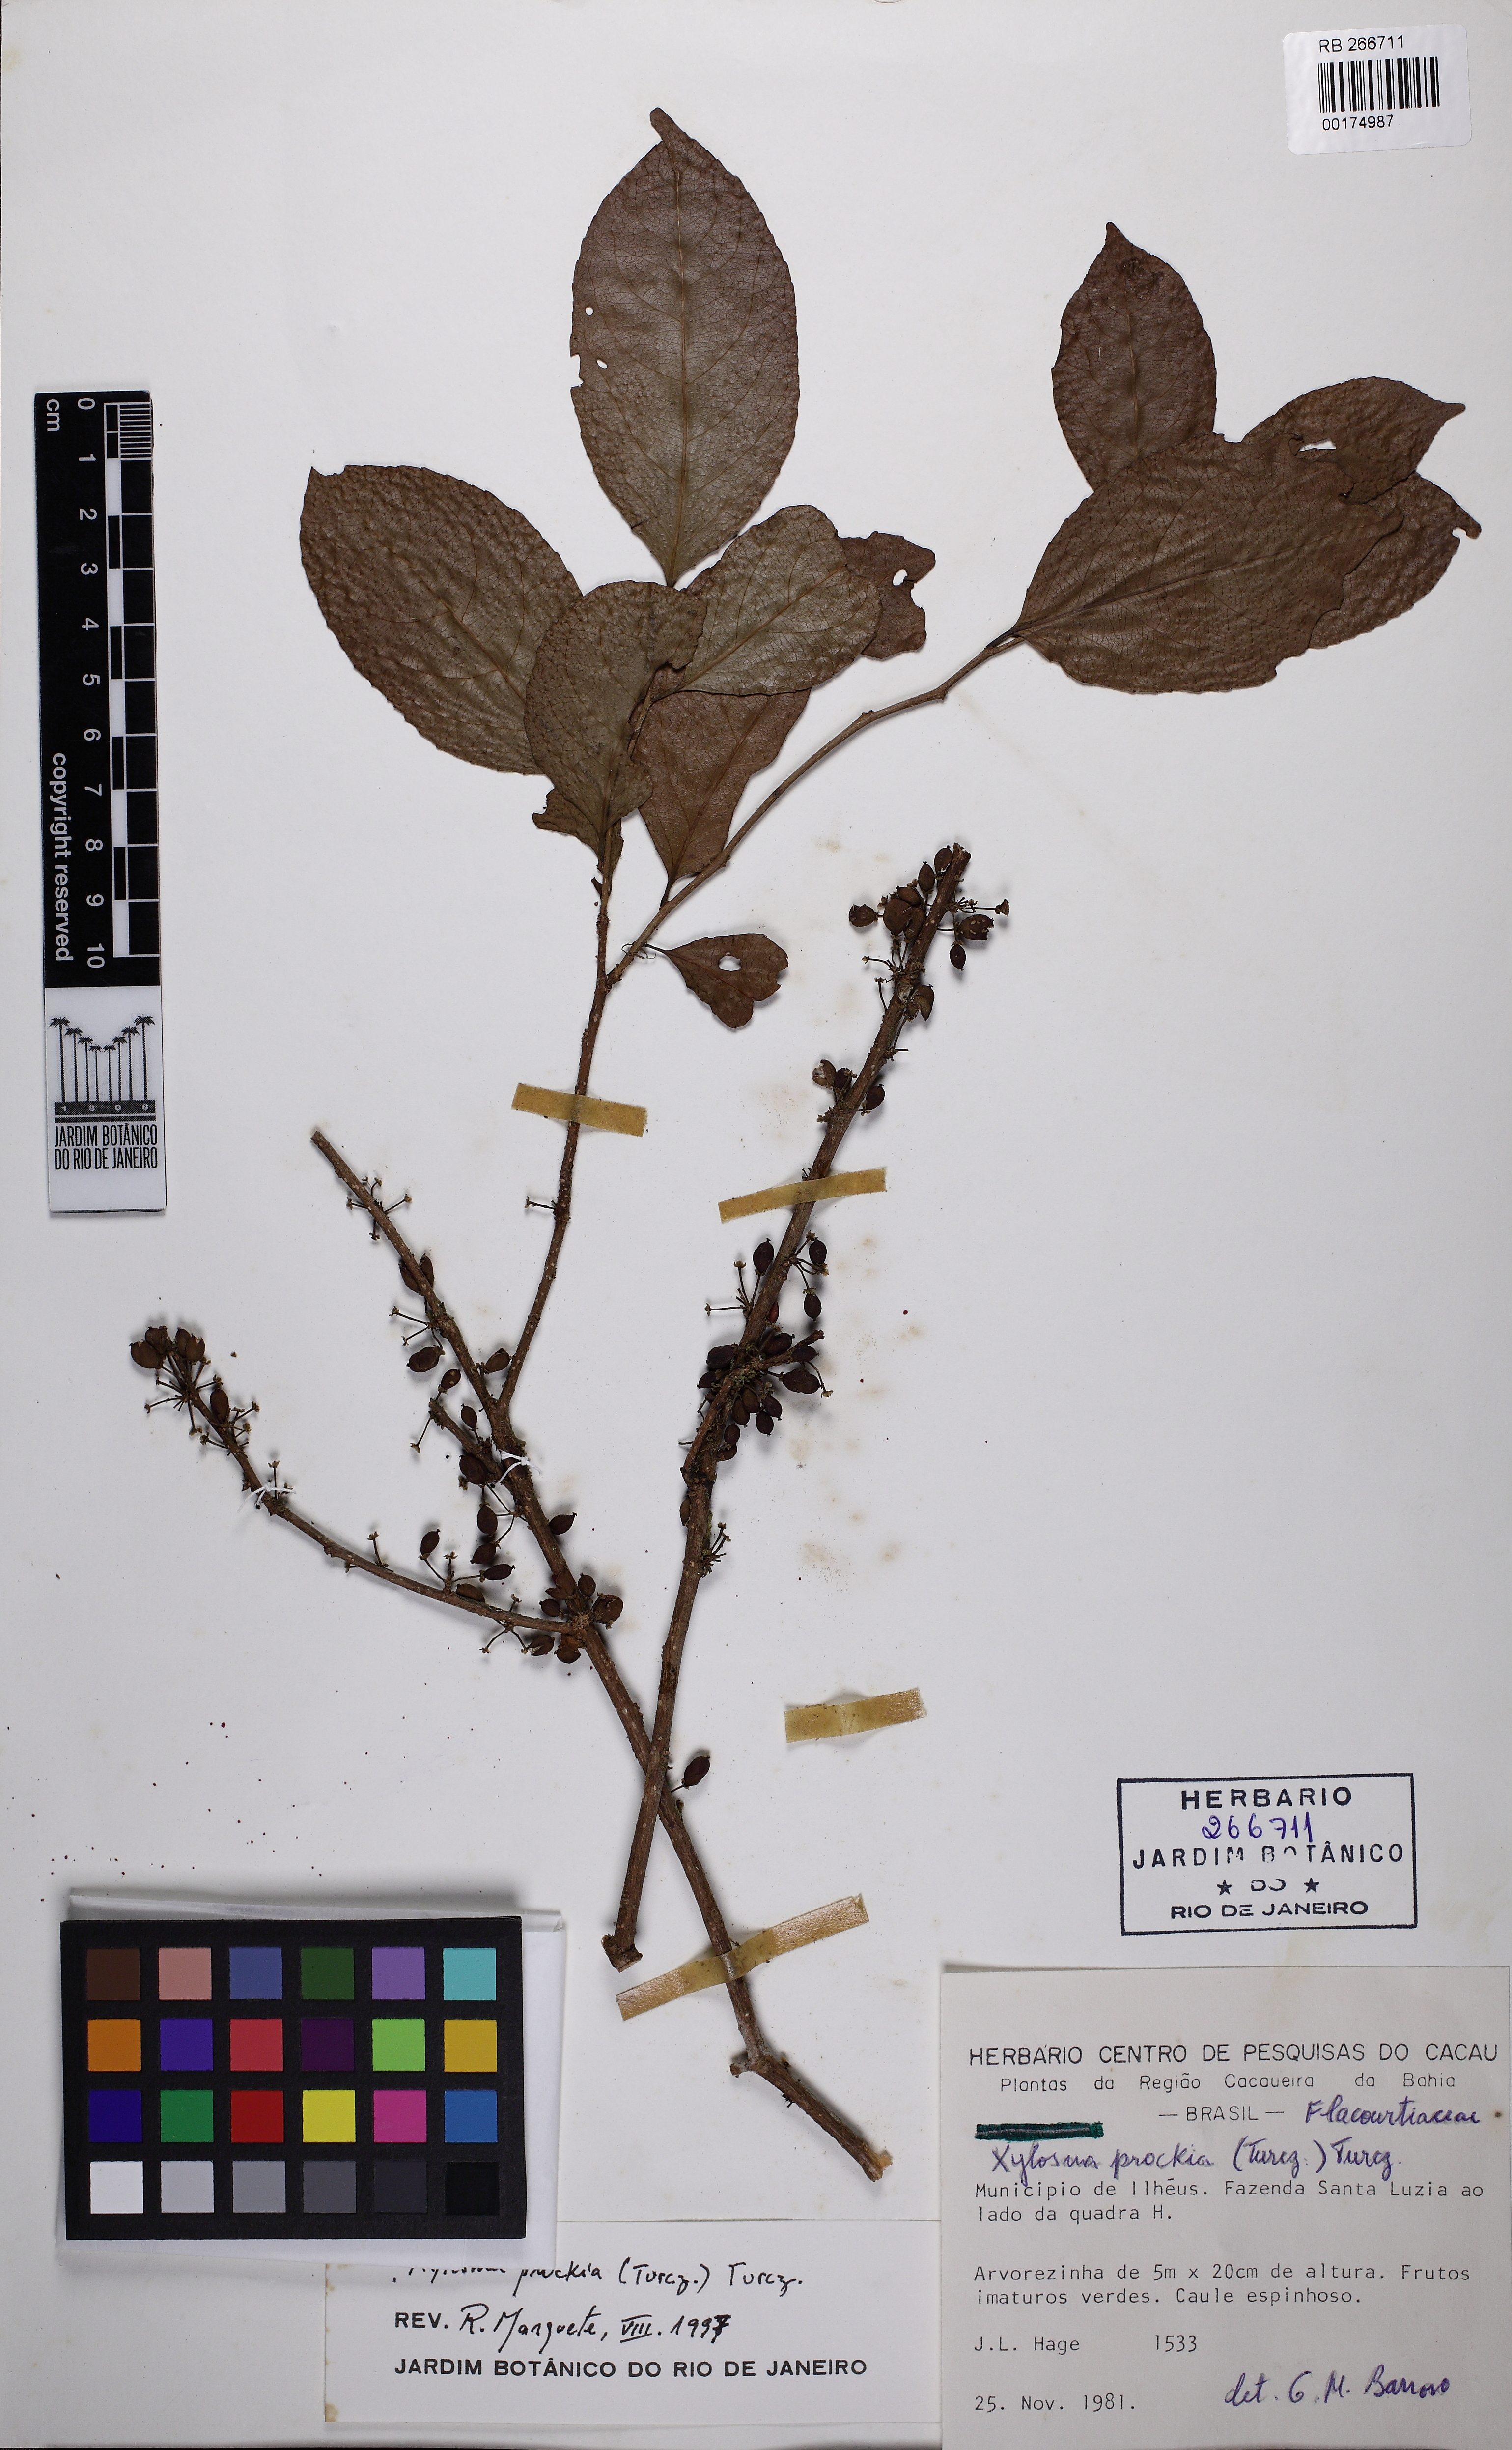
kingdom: Plantae
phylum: Tracheophyta
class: Magnoliopsida
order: Malpighiales
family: Salicaceae
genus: Xylosma
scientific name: Xylosma prockia
